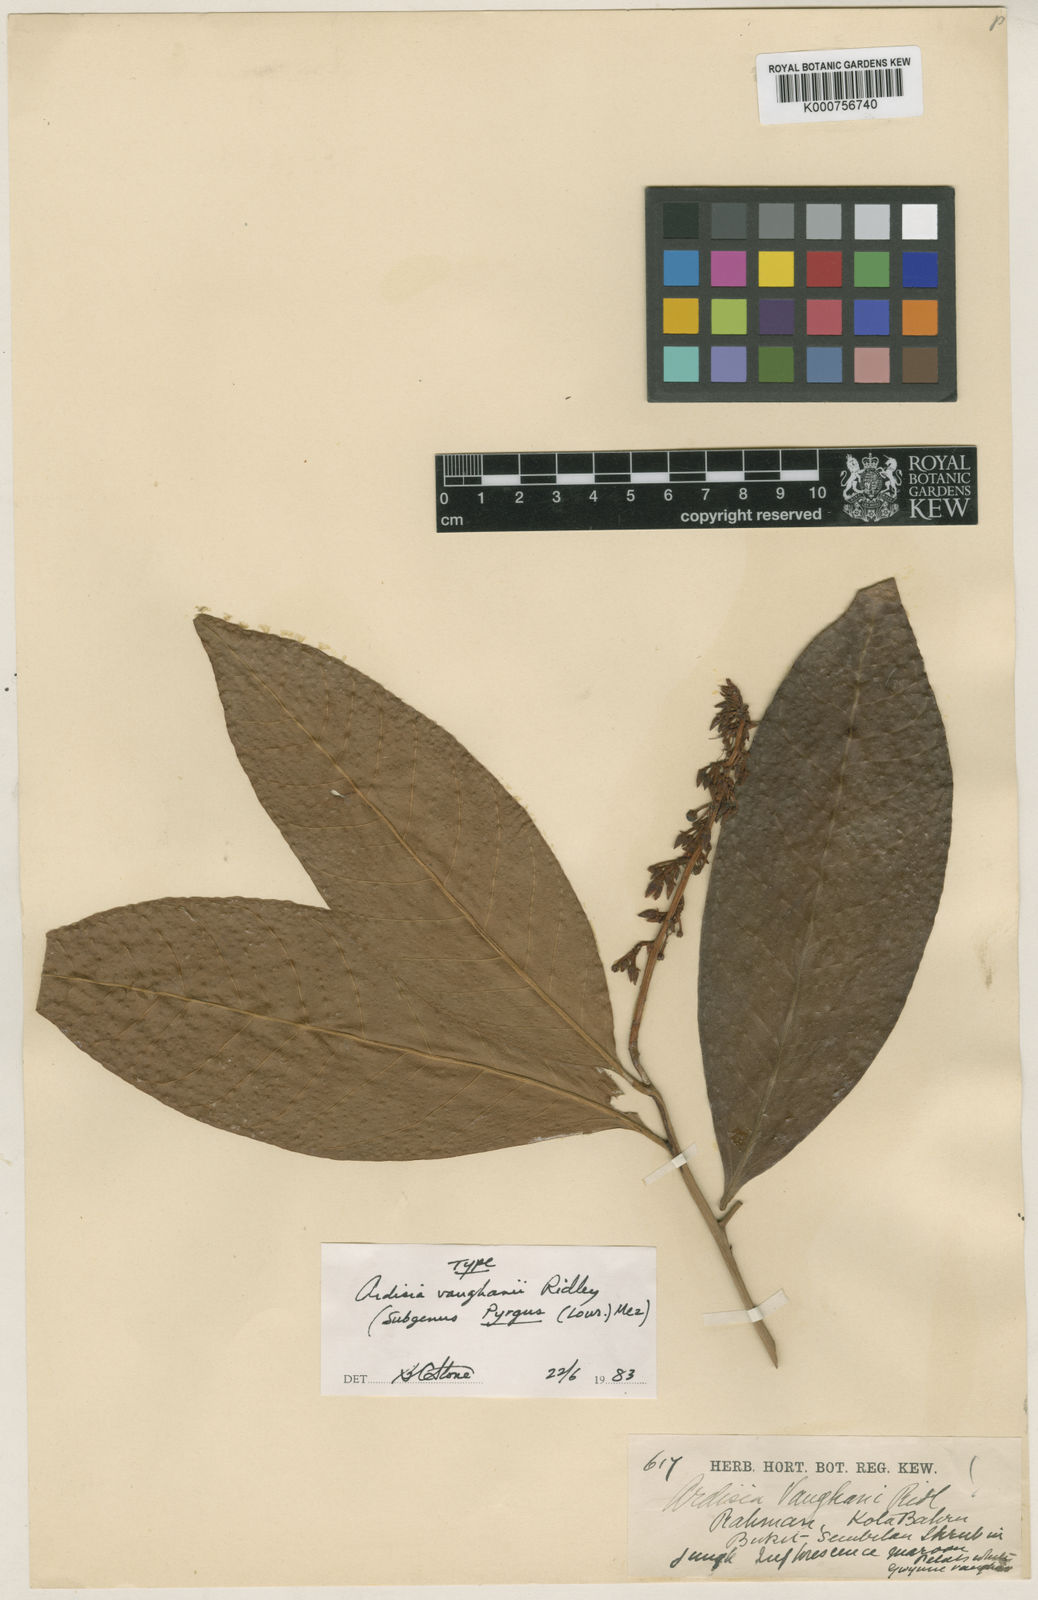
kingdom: Plantae
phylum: Tracheophyta
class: Magnoliopsida
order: Ericales
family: Primulaceae
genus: Ardisia
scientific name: Ardisia vaughanii
